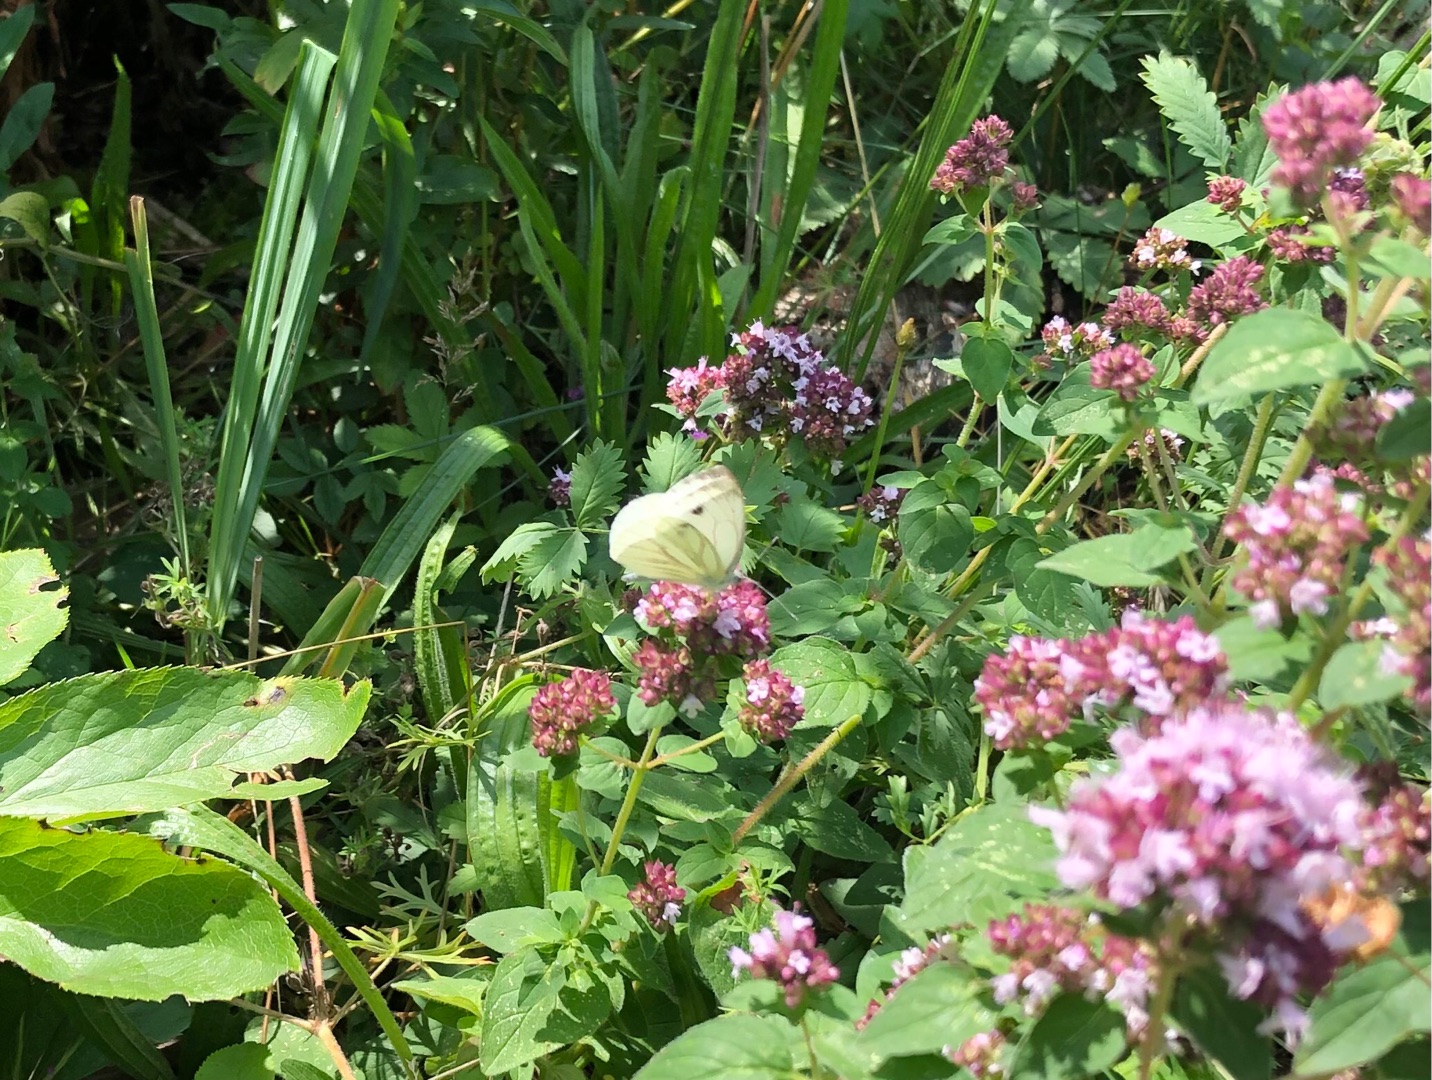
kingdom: Animalia
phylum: Arthropoda
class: Insecta
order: Lepidoptera
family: Pieridae
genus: Pieris
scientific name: Pieris napi
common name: Grønåret kålsommerfugl
